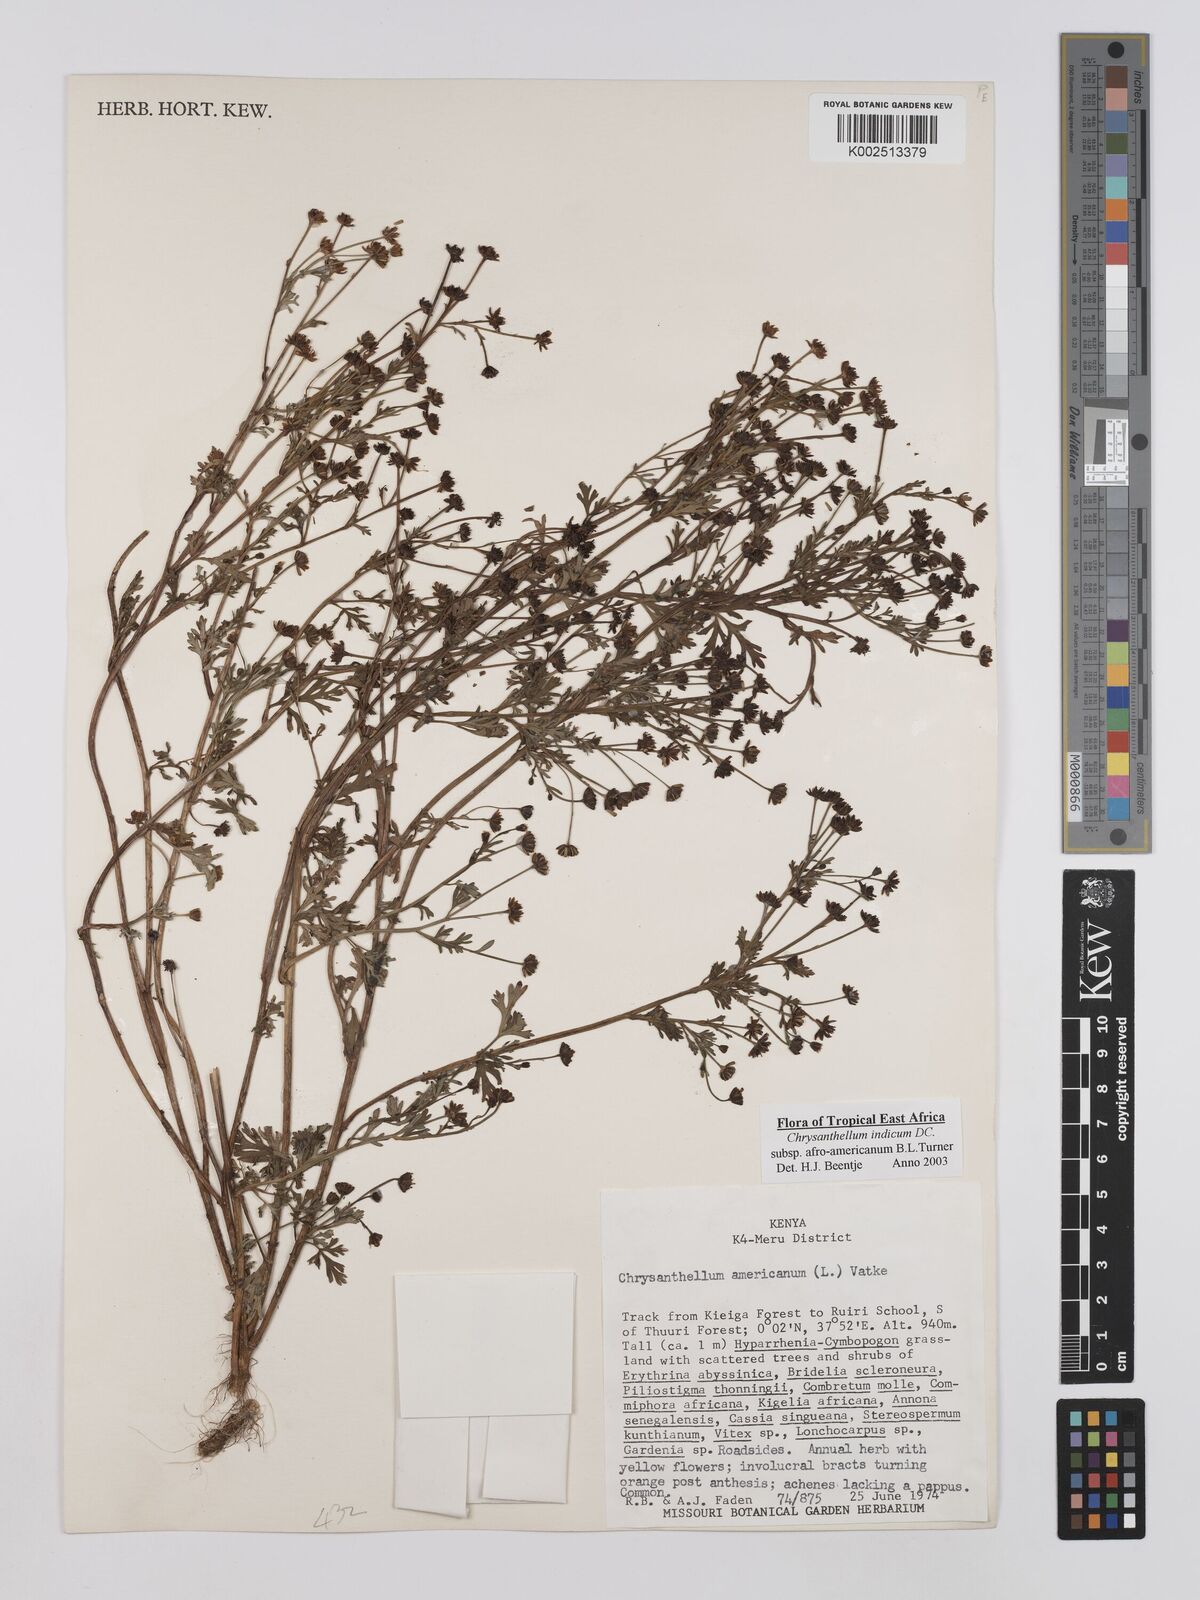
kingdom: Plantae
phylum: Tracheophyta
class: Magnoliopsida
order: Asterales
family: Asteraceae
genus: Chrysanthellum
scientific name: Chrysanthellum indicum
